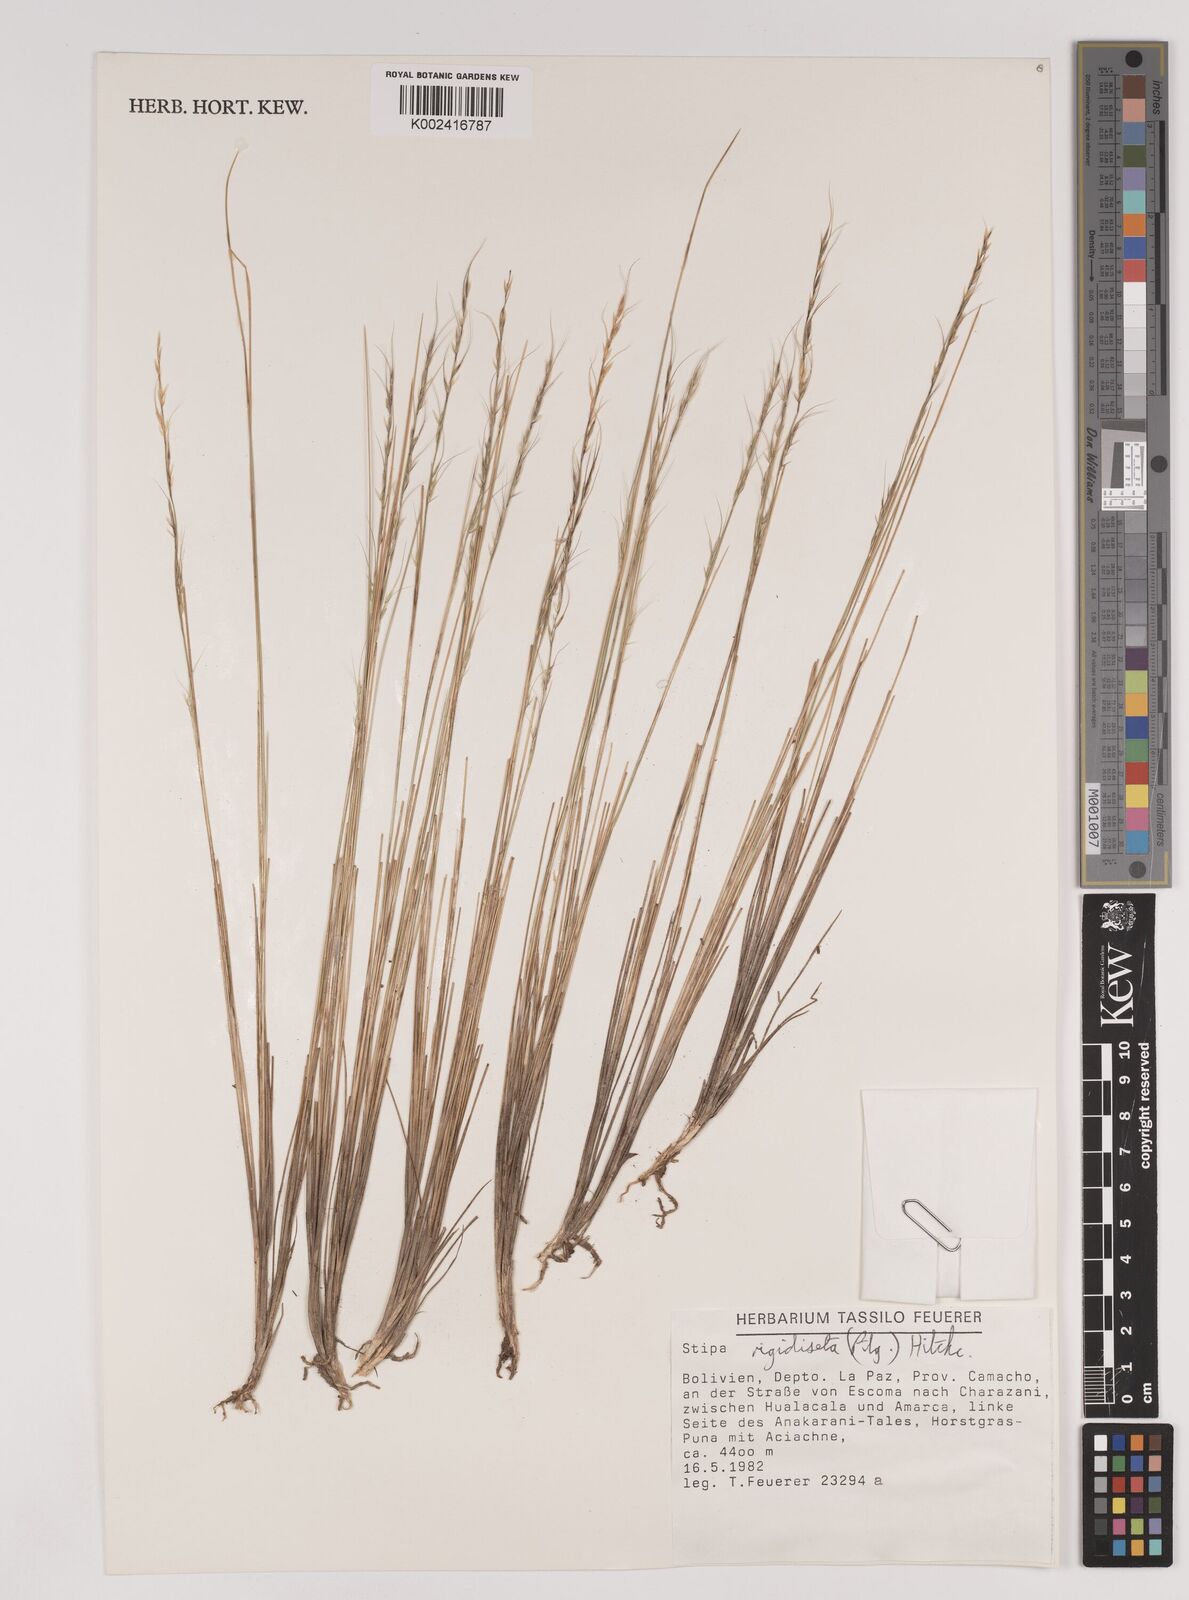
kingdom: Plantae
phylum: Tracheophyta
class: Liliopsida
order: Poales
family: Poaceae
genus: Stipa
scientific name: Stipa rigidiseta
